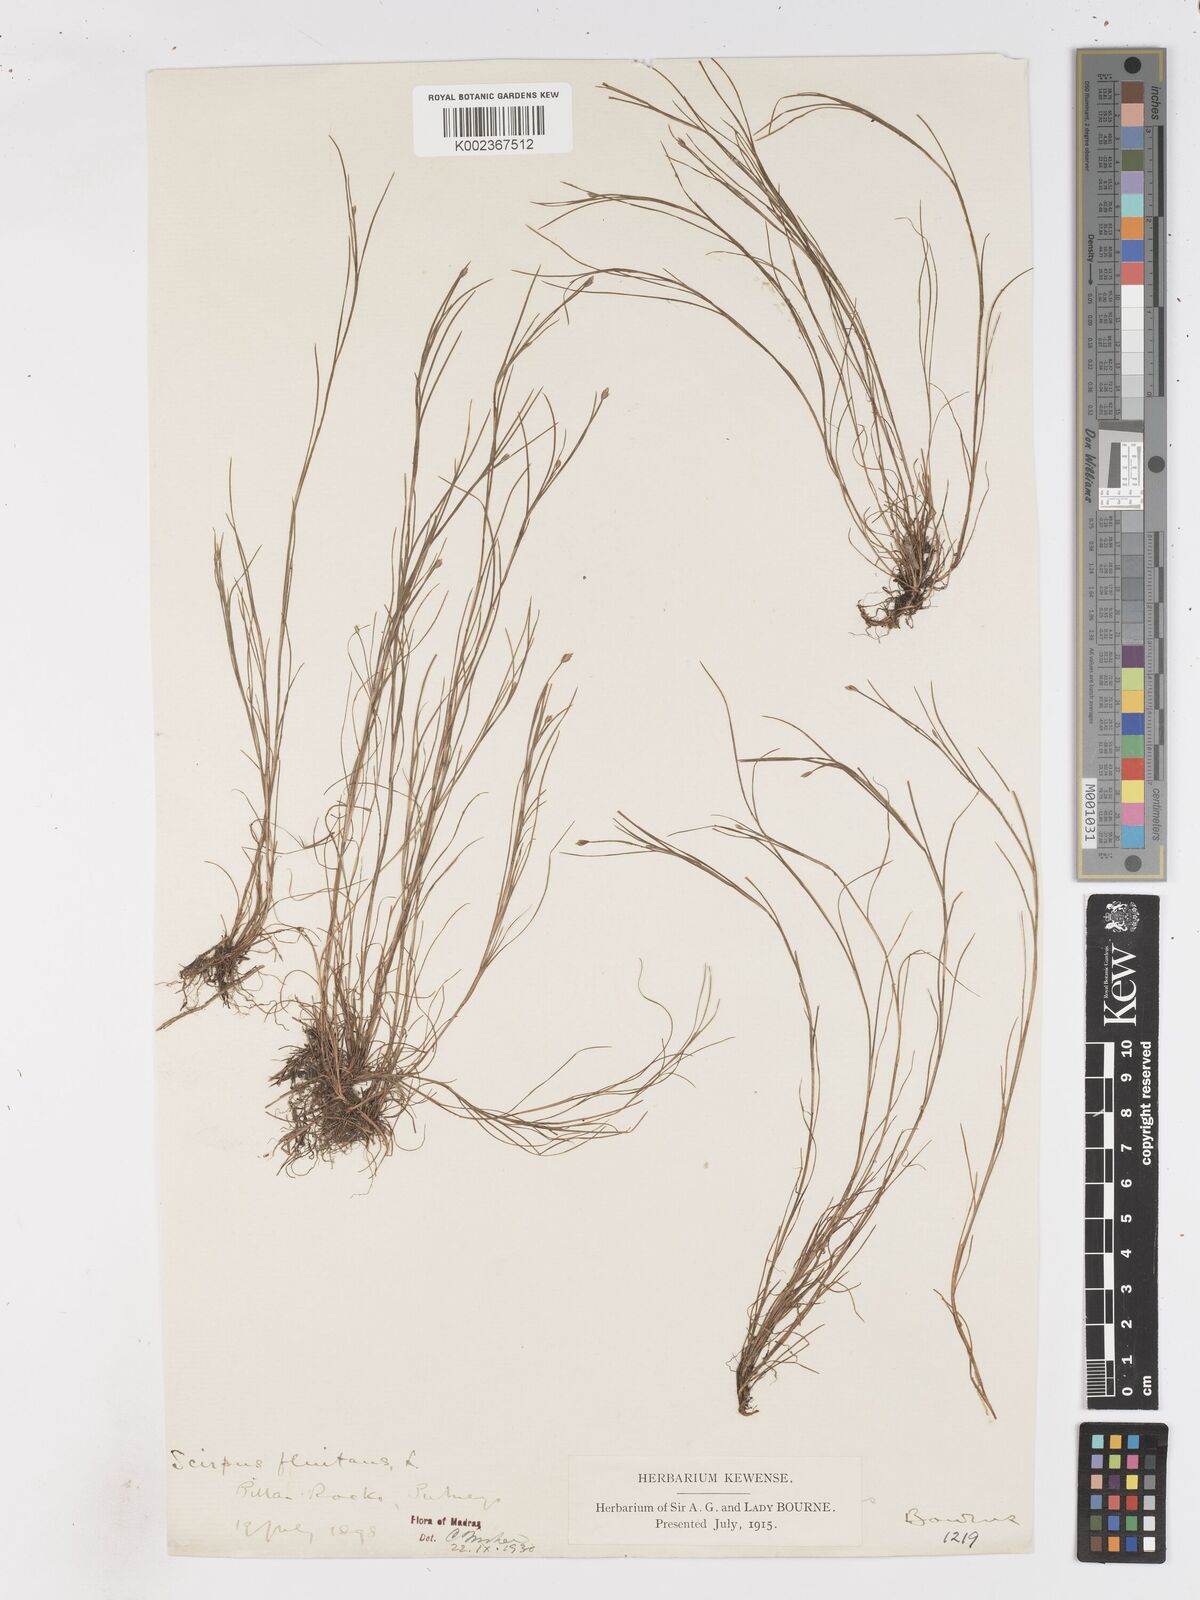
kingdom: Plantae
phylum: Tracheophyta
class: Liliopsida
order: Poales
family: Cyperaceae
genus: Isolepis
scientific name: Isolepis fluitans
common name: Floating club-rush
